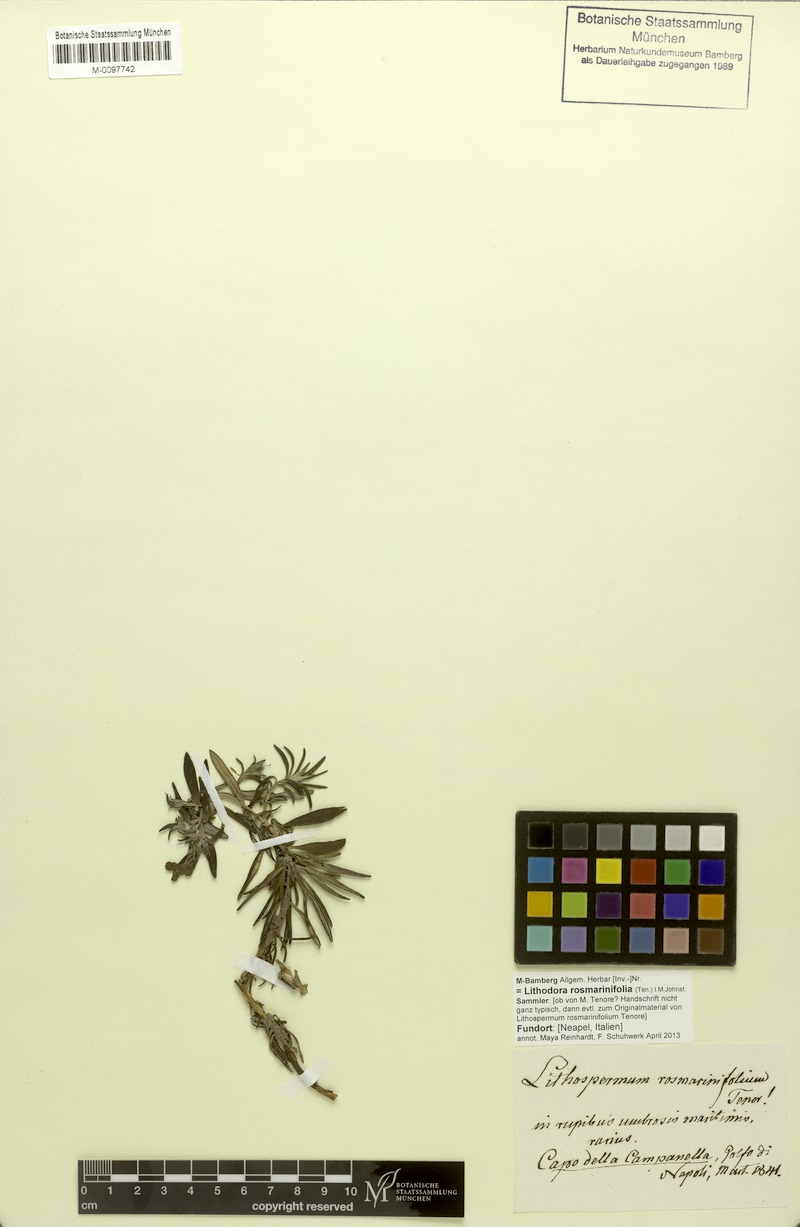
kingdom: Plantae
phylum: Tracheophyta
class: Magnoliopsida
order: Boraginales
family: Boraginaceae
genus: Glandora
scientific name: Glandora rosmarinifolia
